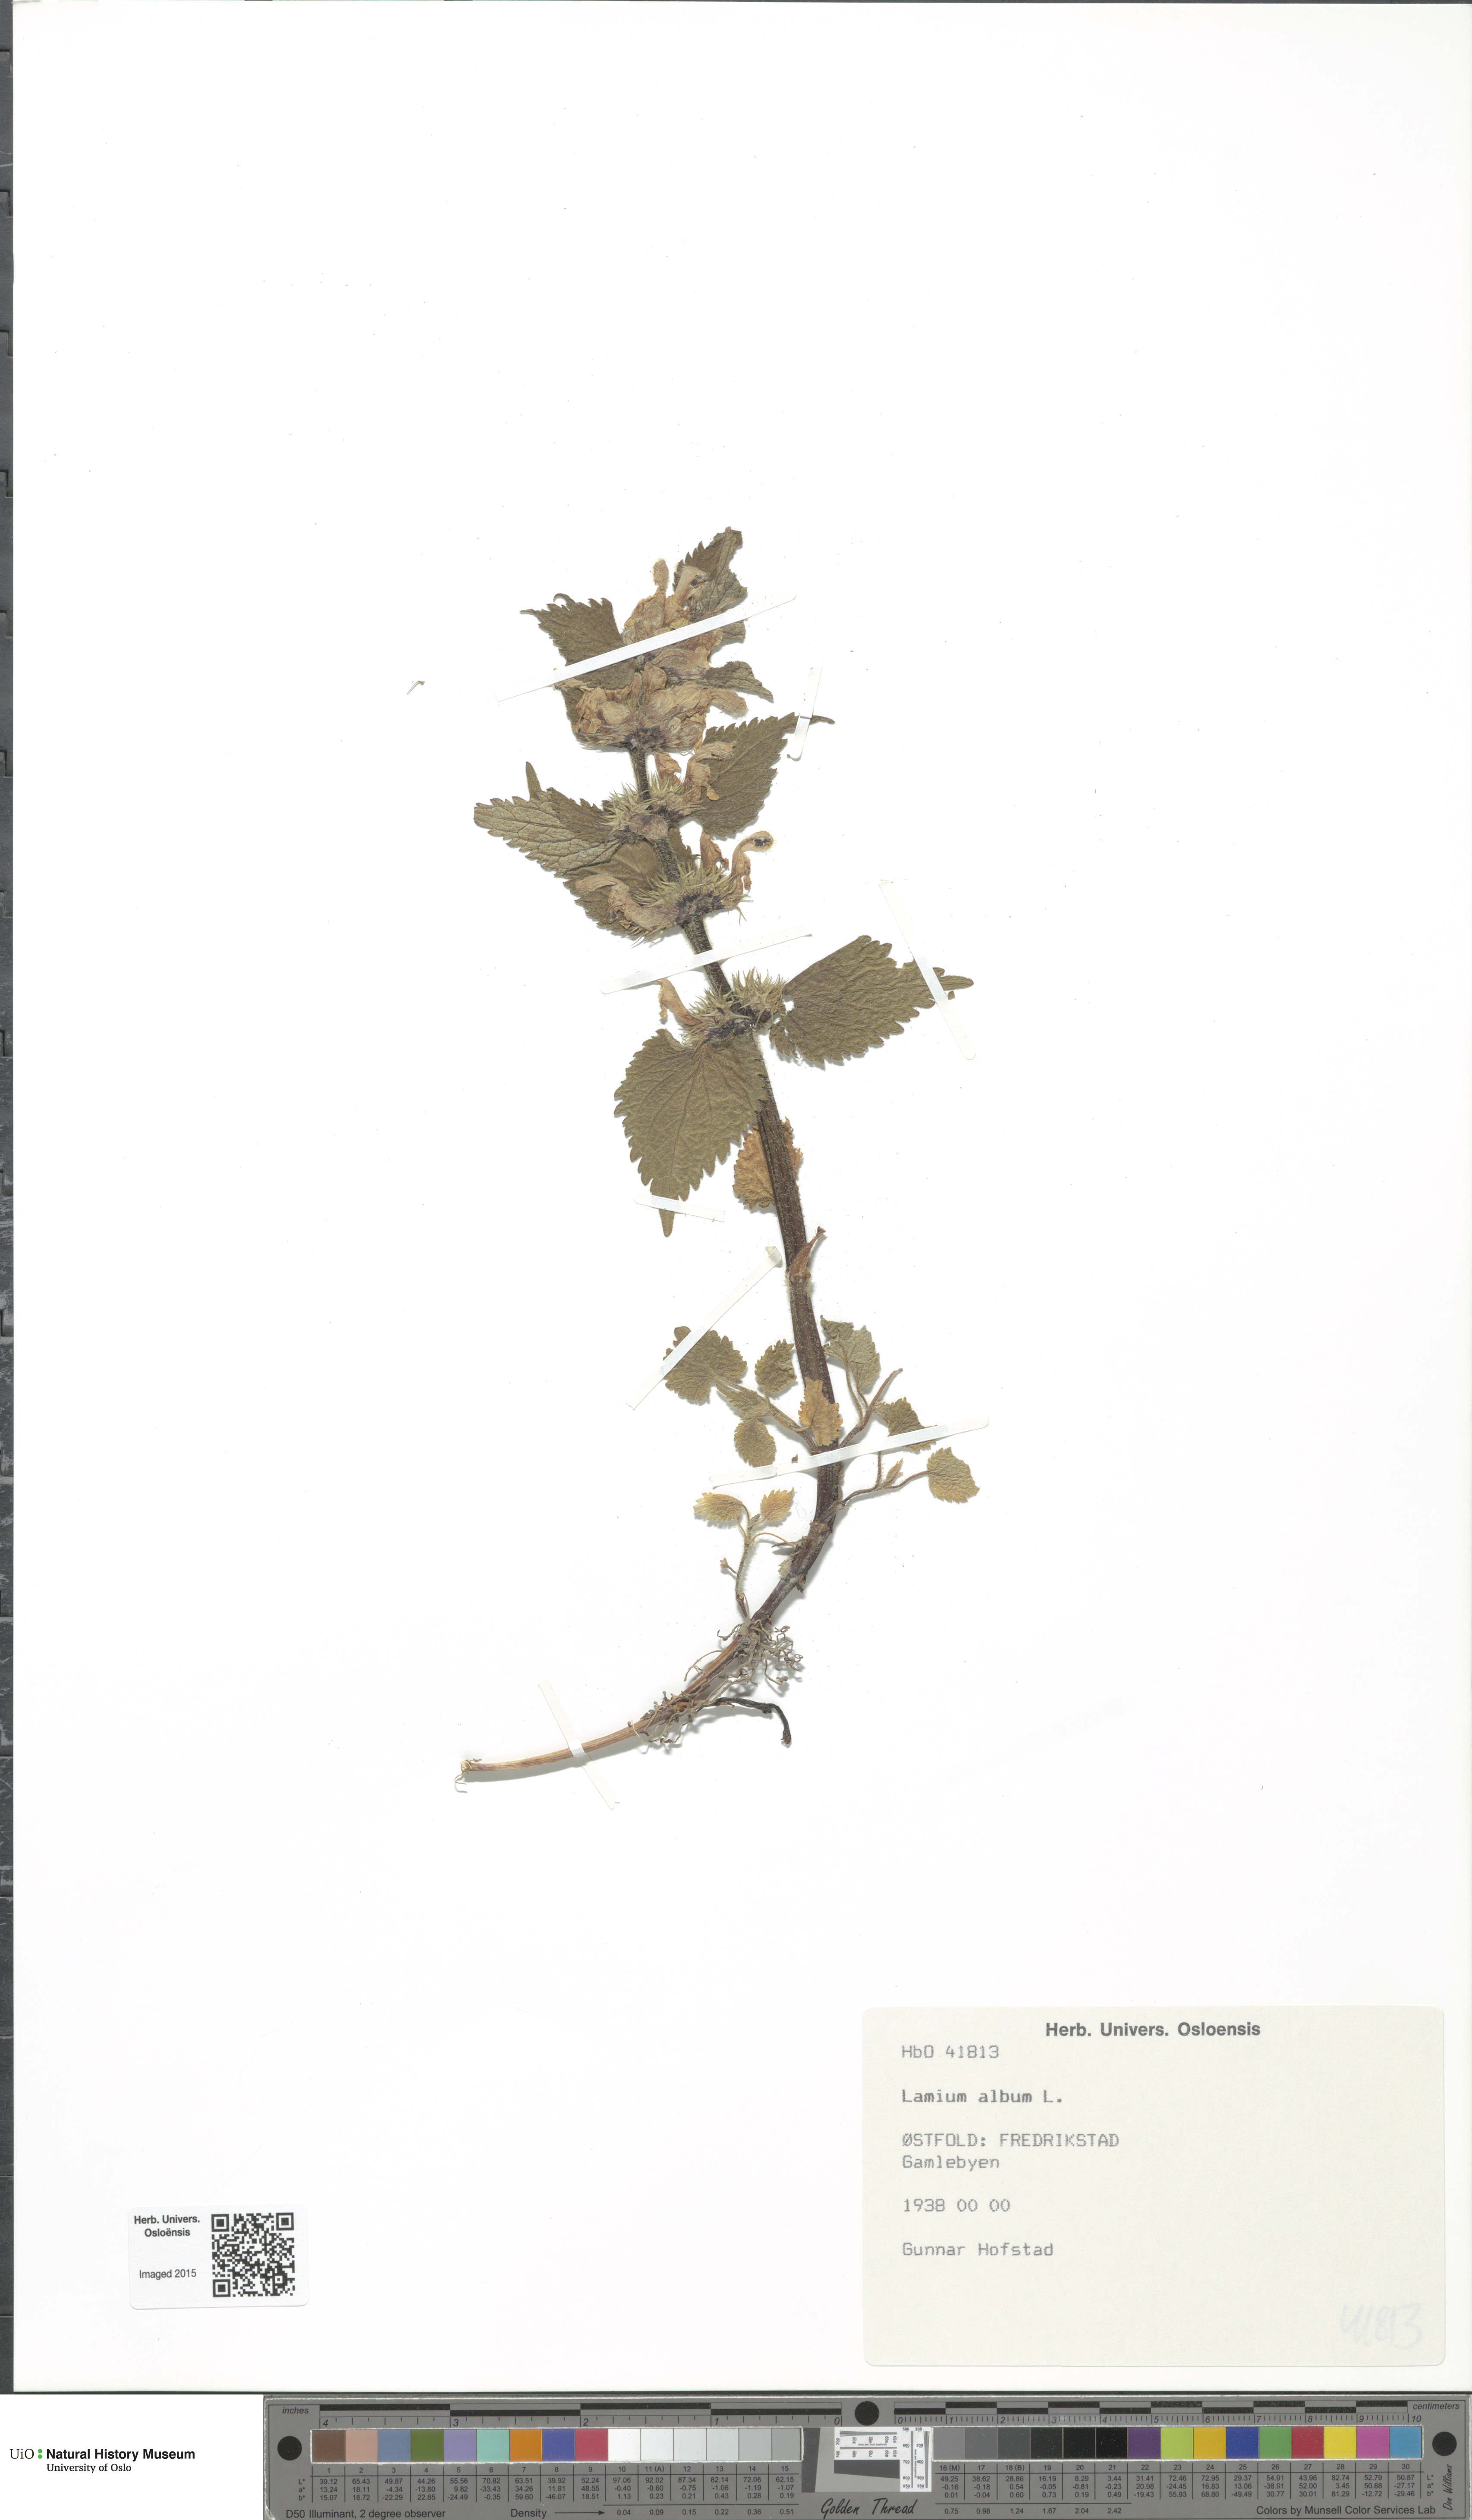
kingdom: Plantae
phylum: Tracheophyta
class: Magnoliopsida
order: Lamiales
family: Lamiaceae
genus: Lamium
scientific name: Lamium album
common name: White dead-nettle
